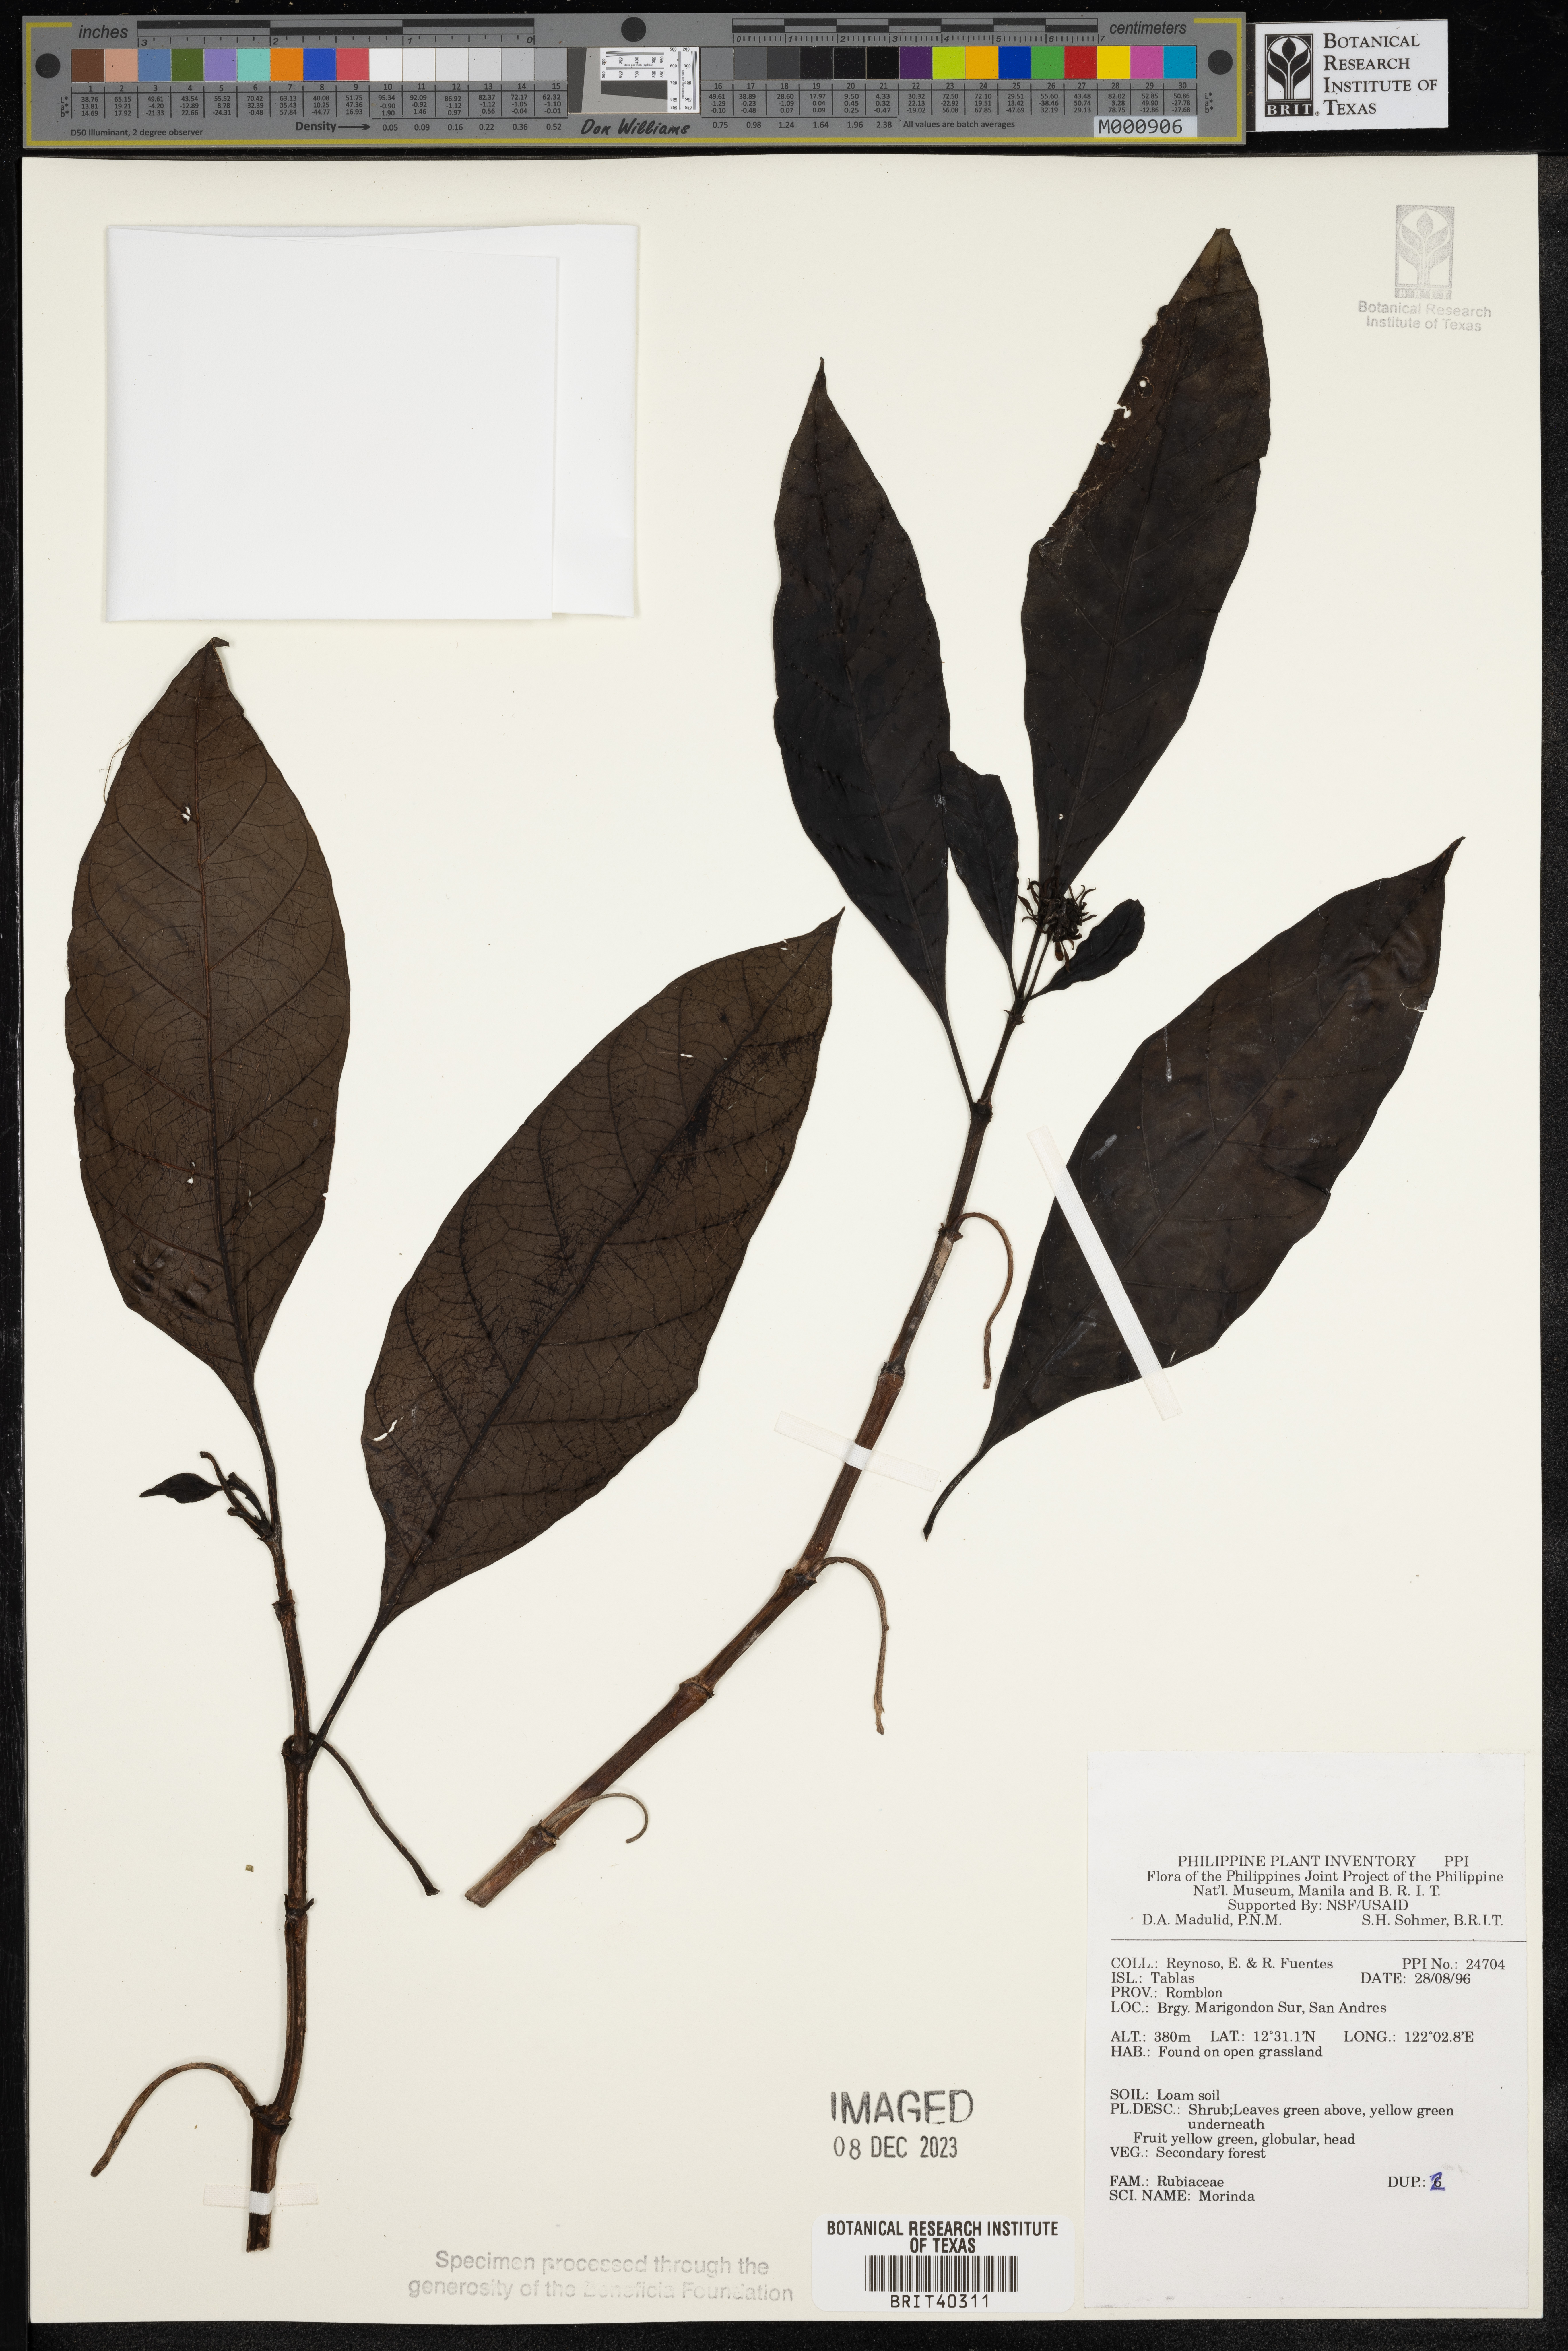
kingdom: Plantae
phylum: Tracheophyta
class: Magnoliopsida
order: Gentianales
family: Rubiaceae
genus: Morinda
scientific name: Morinda
